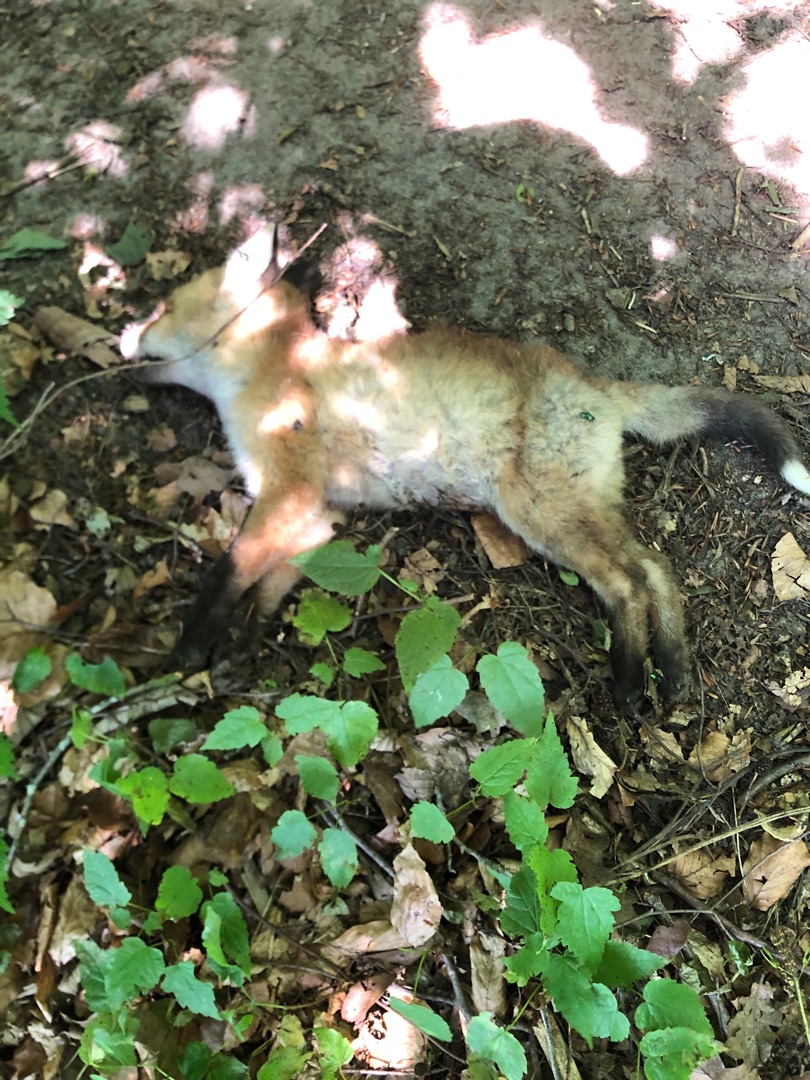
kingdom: Animalia
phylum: Chordata
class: Mammalia
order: Carnivora
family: Canidae
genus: Vulpes
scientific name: Vulpes vulpes
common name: Ræv
